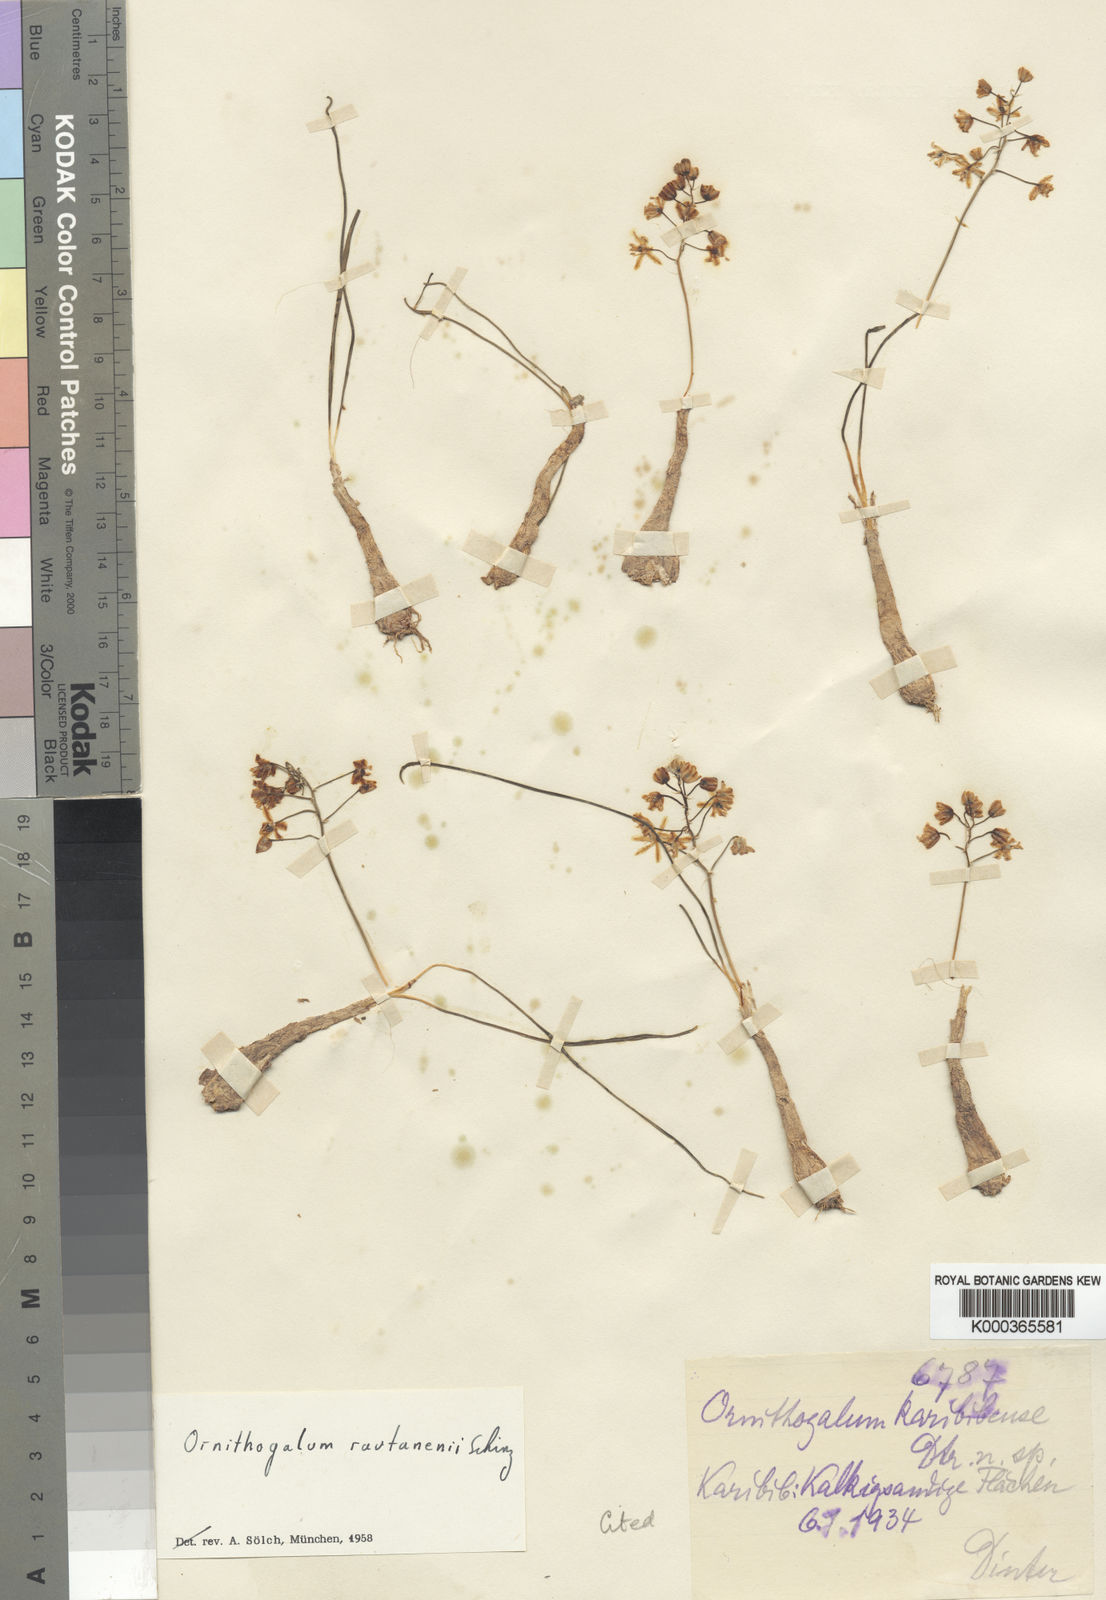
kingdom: Plantae
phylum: Tracheophyta
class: Liliopsida
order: Asparagales
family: Asparagaceae
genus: Albuca
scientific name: Albuca rautanenii
